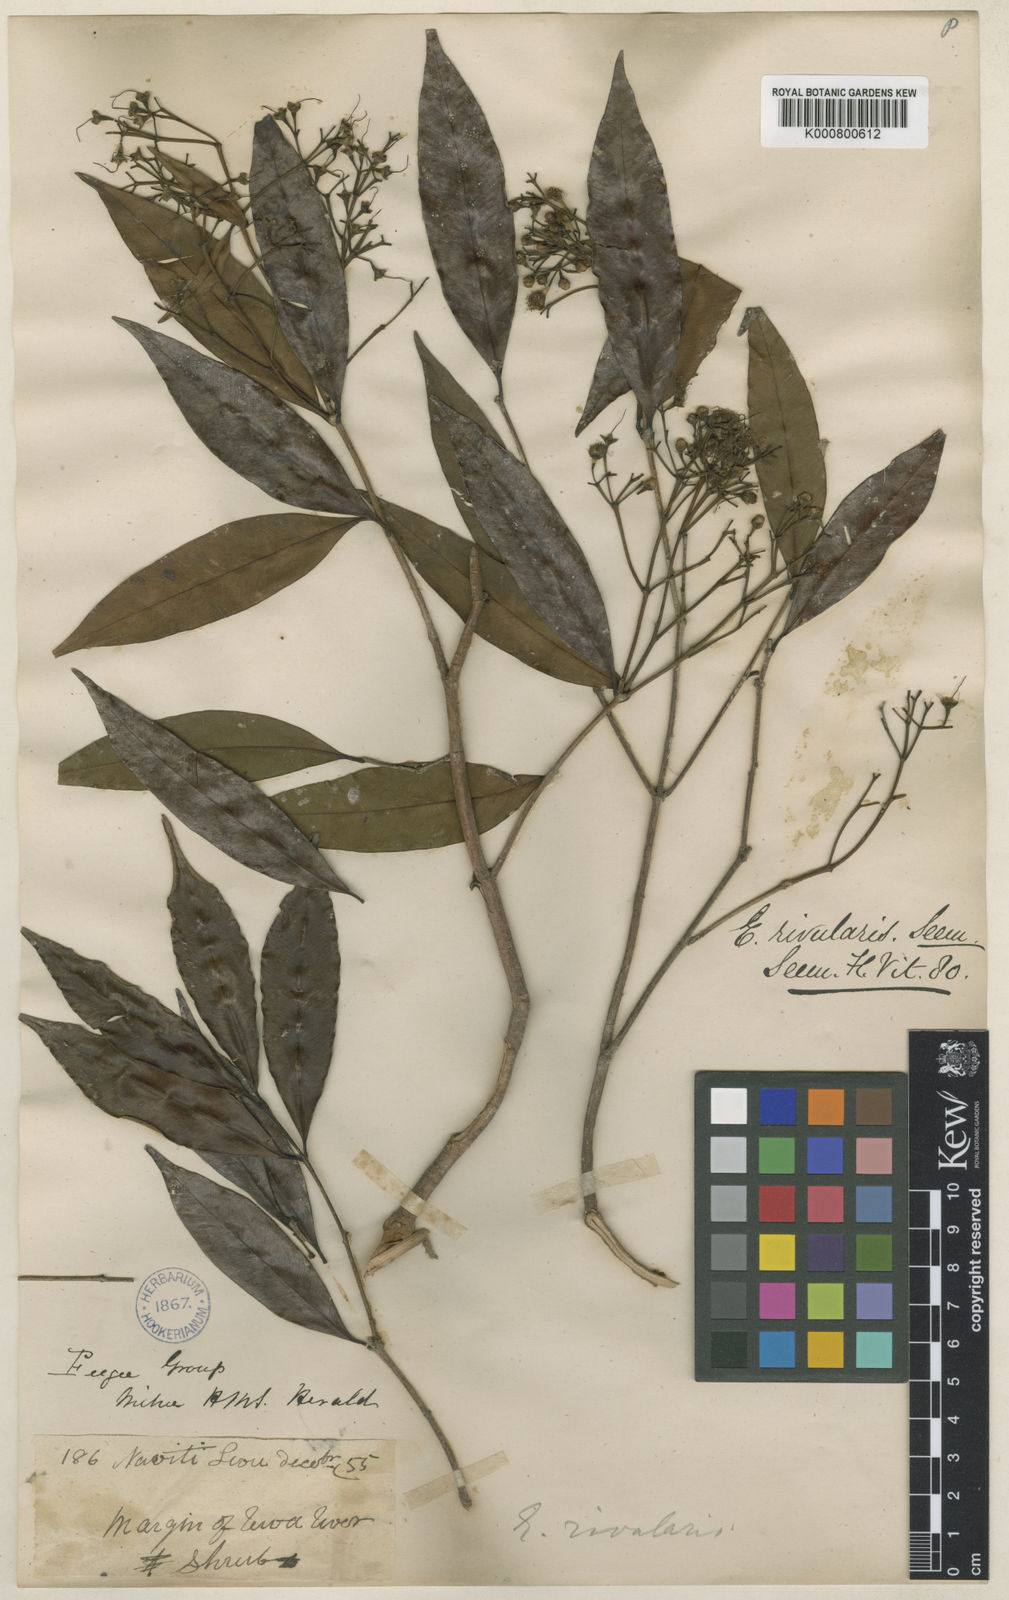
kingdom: Plantae
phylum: Tracheophyta
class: Magnoliopsida
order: Myrtales
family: Myrtaceae
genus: Syzygium
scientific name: Syzygium seemannianum
